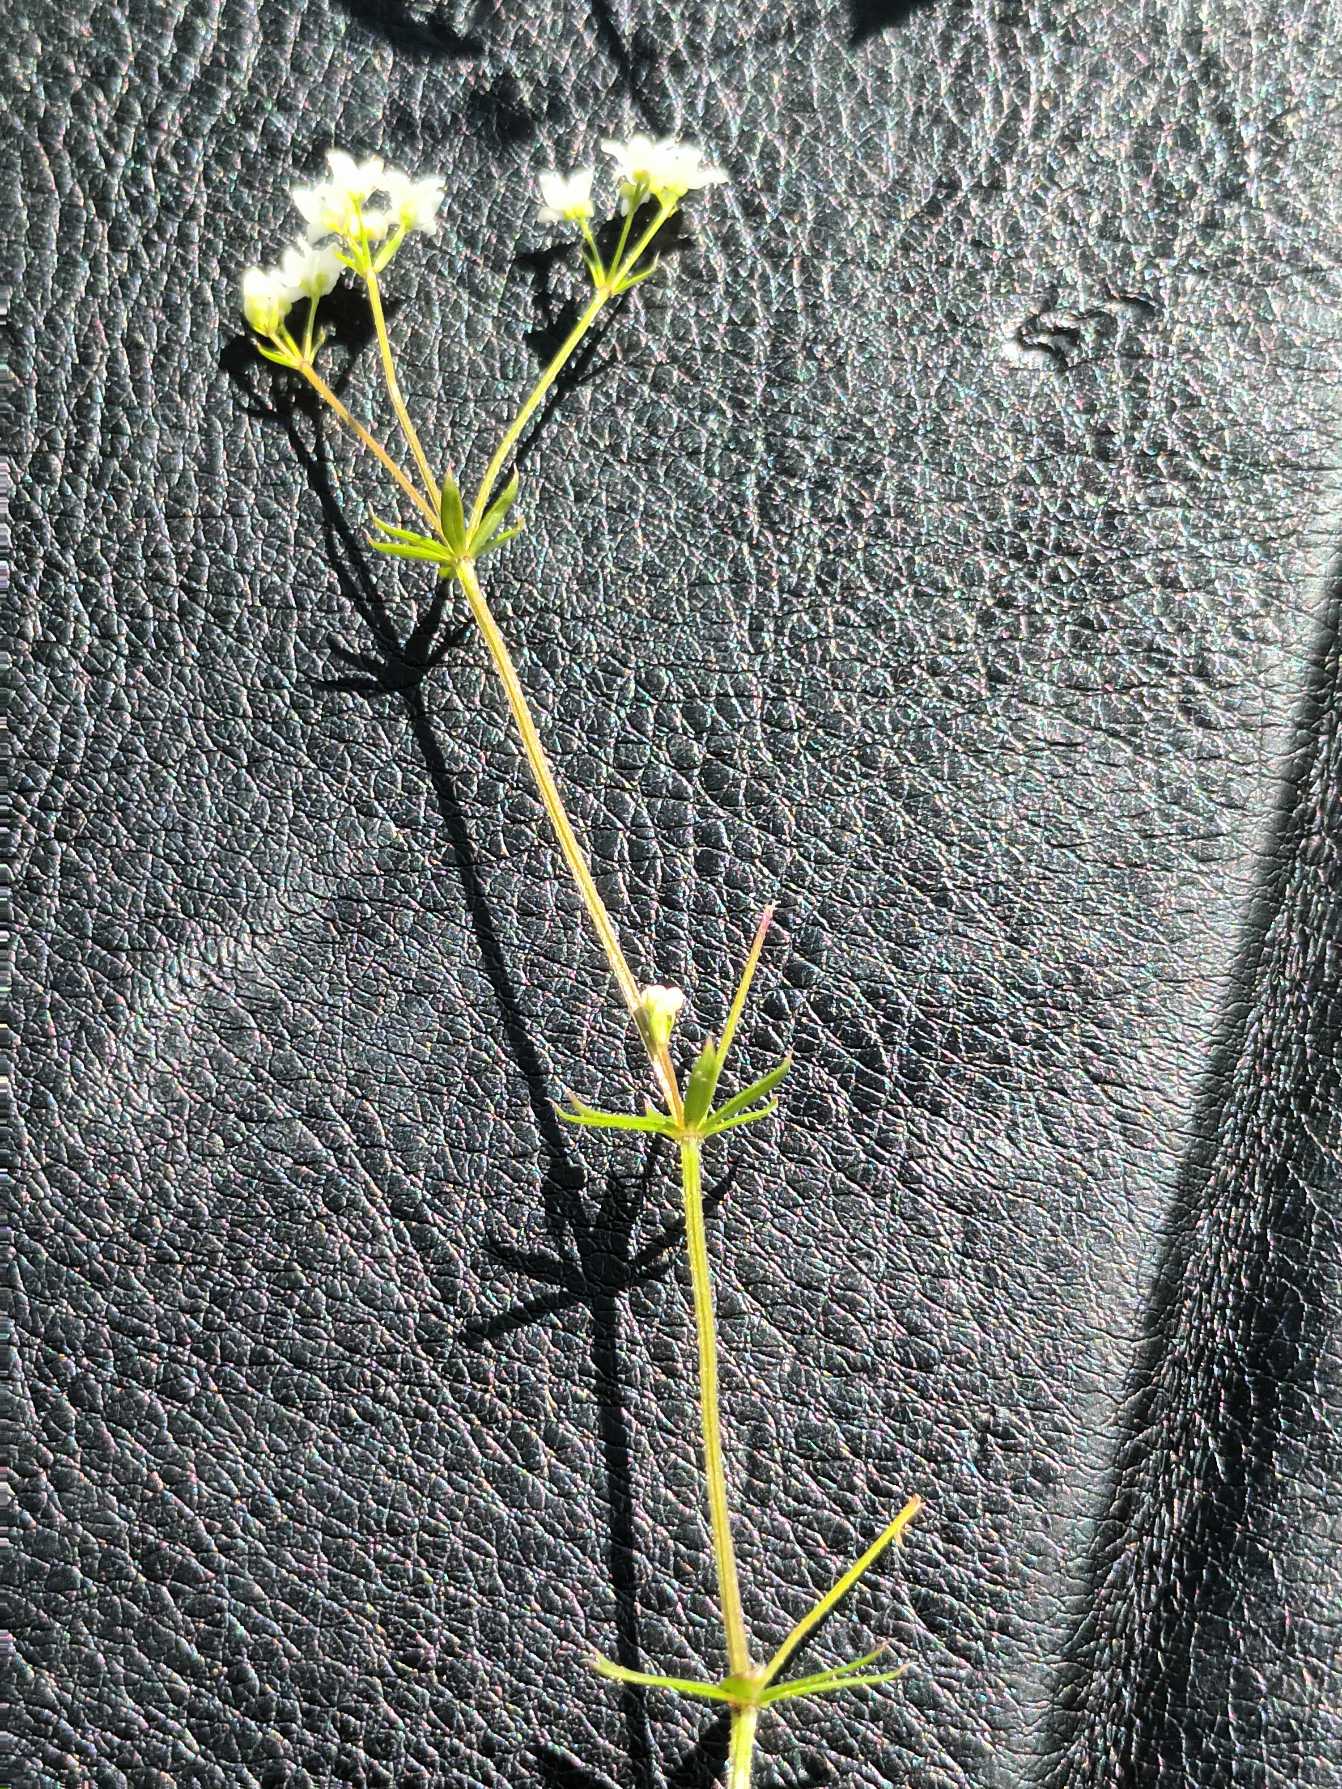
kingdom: Plantae
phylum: Tracheophyta
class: Magnoliopsida
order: Gentianales
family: Rubiaceae
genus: Galium
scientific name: Galium uliginosum
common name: Sump-snerre
